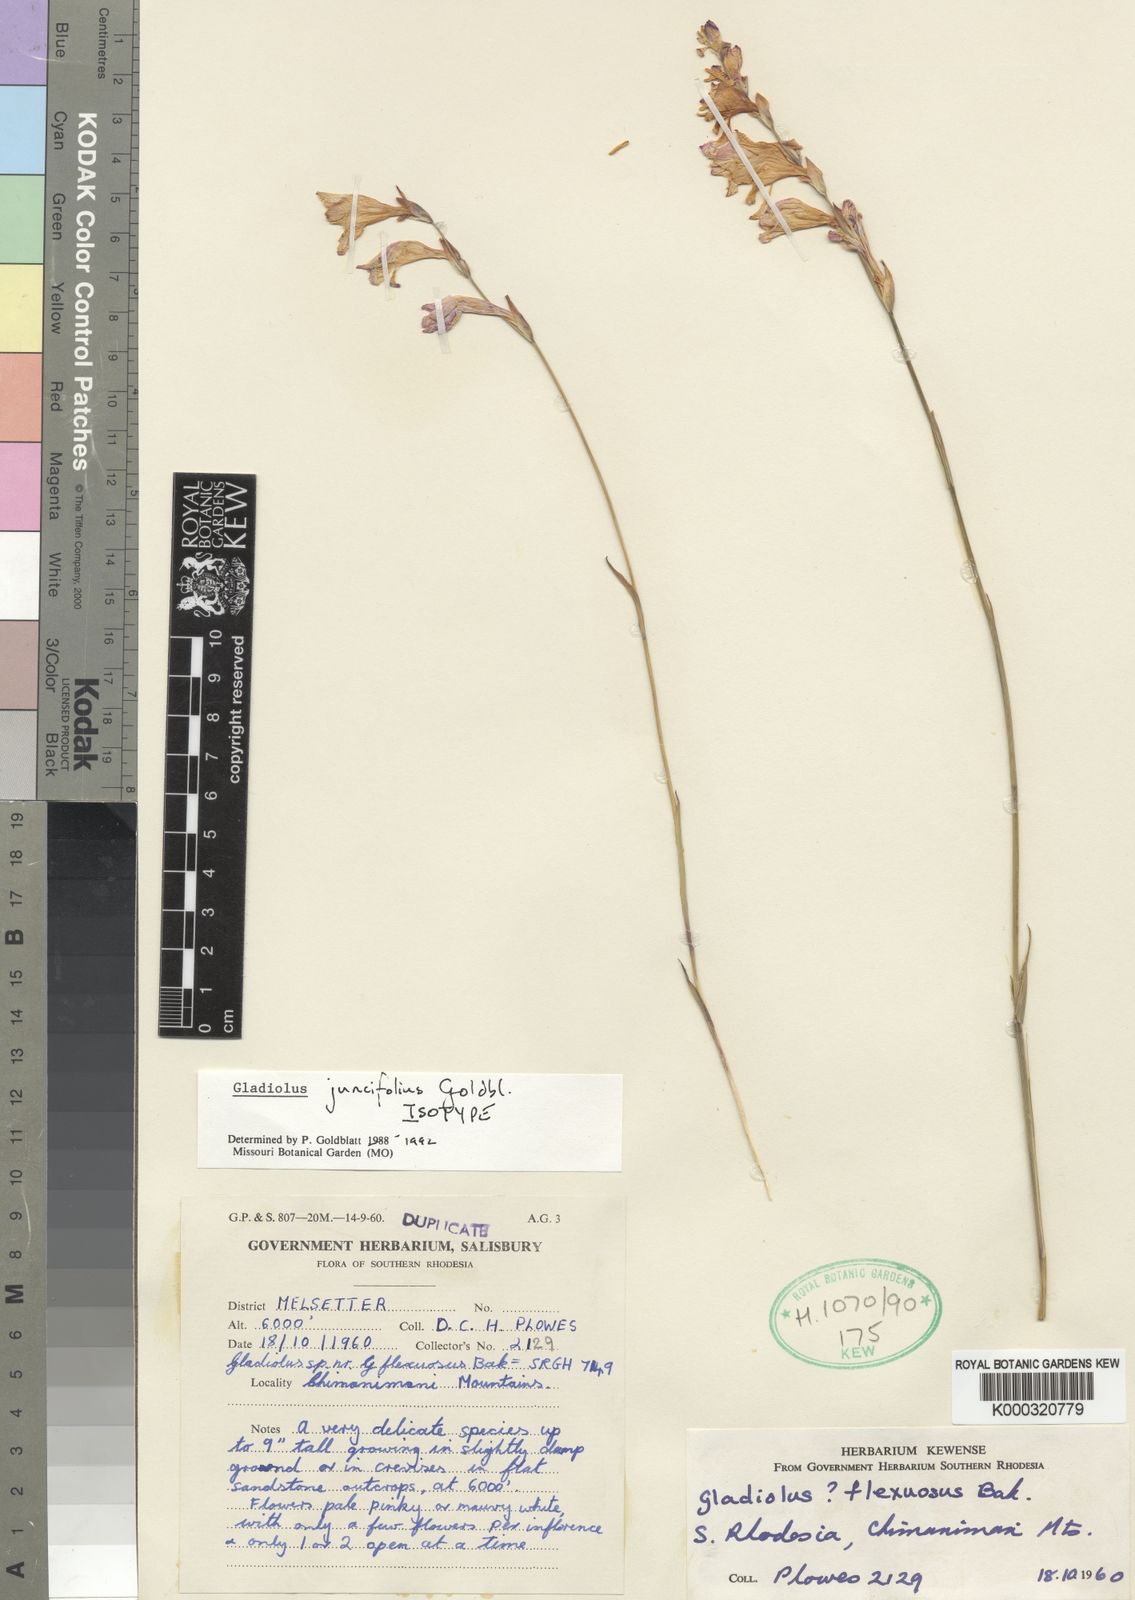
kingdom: Plantae
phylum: Tracheophyta
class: Liliopsida
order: Asparagales
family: Iridaceae
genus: Gladiolus
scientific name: Gladiolus juncifolius
